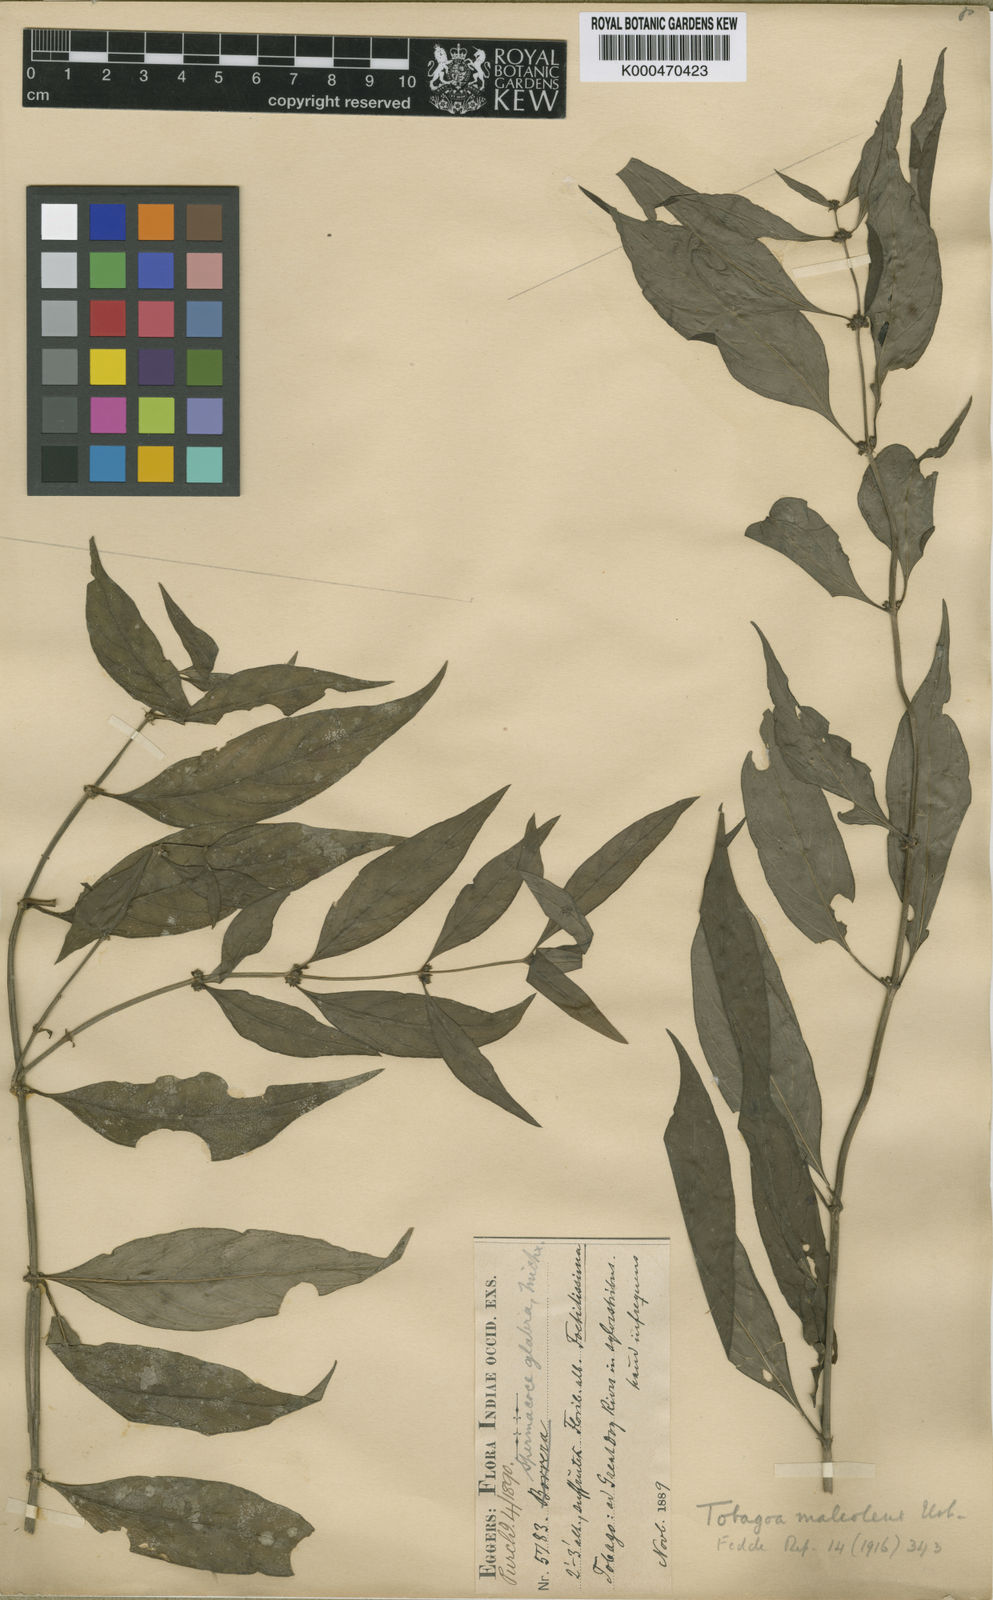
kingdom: Plantae
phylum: Tracheophyta
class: Magnoliopsida
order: Gentianales
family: Rubiaceae
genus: Tobagoa
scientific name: Tobagoa maleolens
